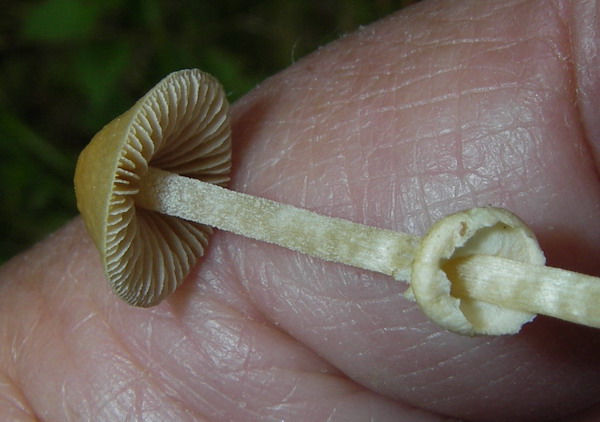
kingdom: Fungi
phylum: Basidiomycota
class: Agaricomycetes
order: Agaricales
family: Bolbitiaceae
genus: Conocybe
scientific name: Conocybe vexans
